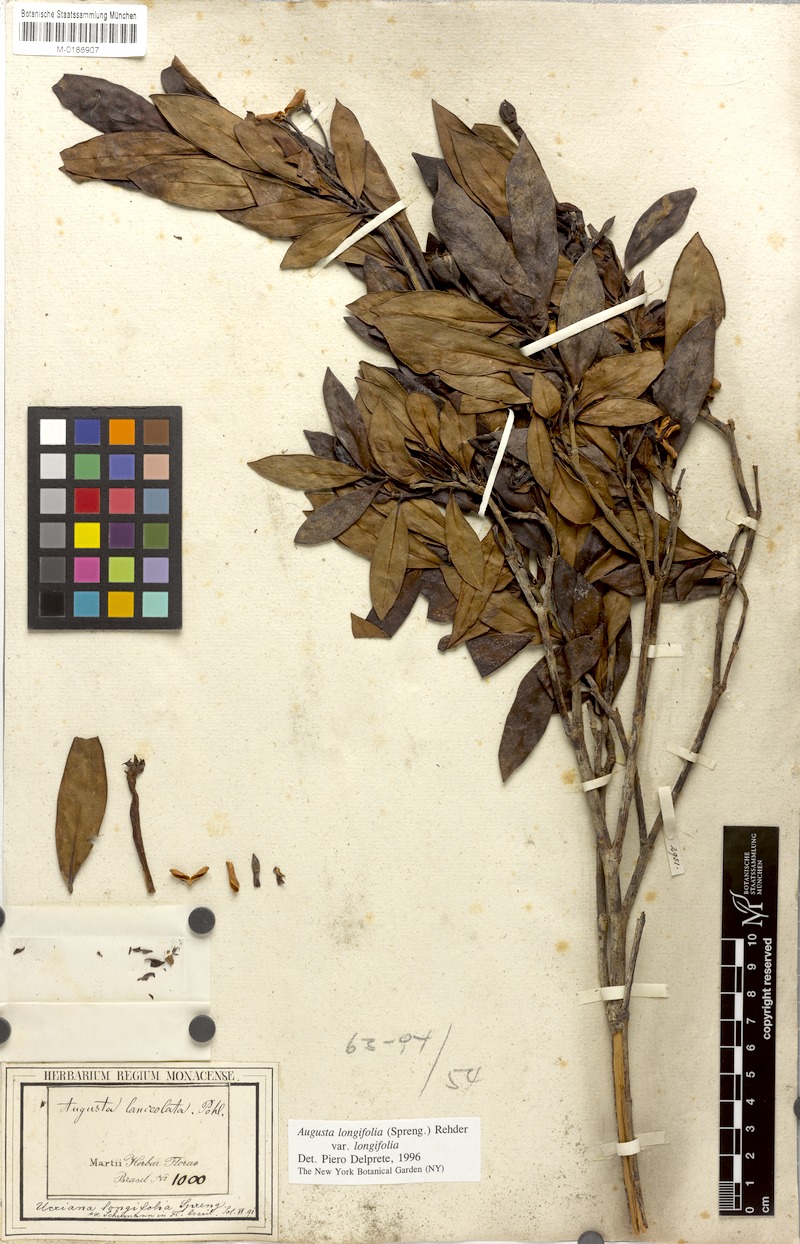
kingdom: Plantae
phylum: Tracheophyta
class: Magnoliopsida
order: Gentianales
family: Rubiaceae
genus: Augusta
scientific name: Augusta longifolia
